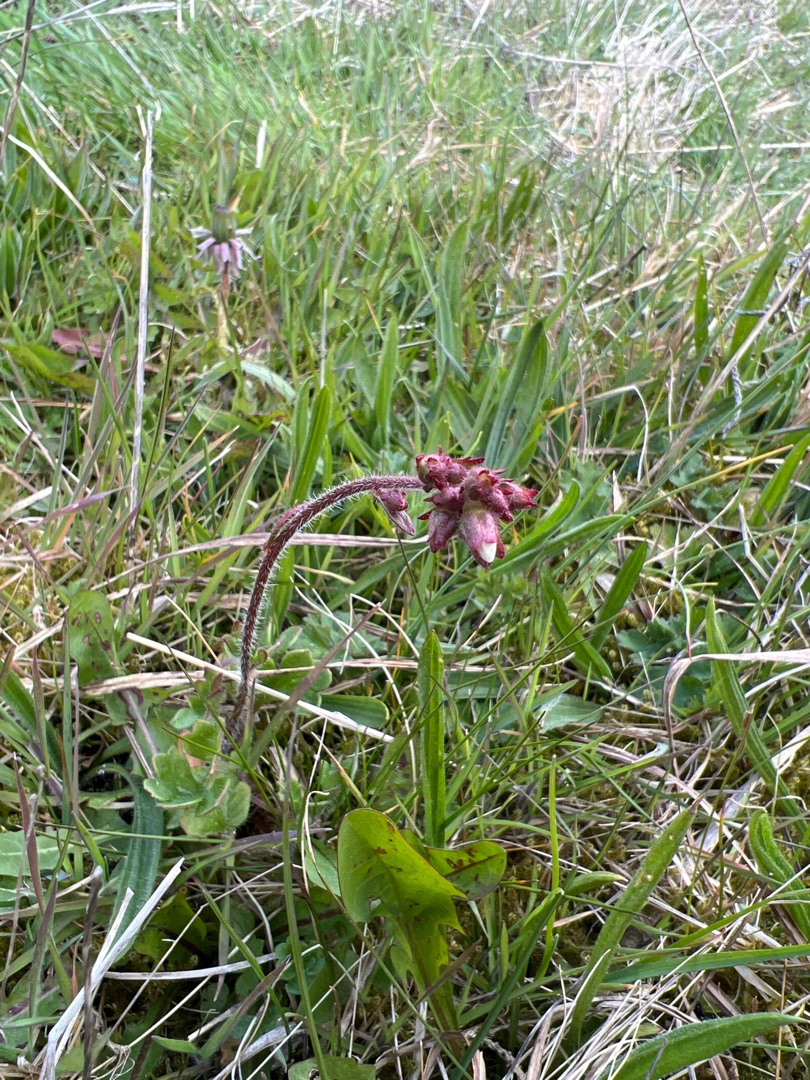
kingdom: Plantae
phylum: Tracheophyta
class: Magnoliopsida
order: Saxifragales
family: Saxifragaceae
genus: Saxifraga
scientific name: Saxifraga granulata
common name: Kornet stenbræk
